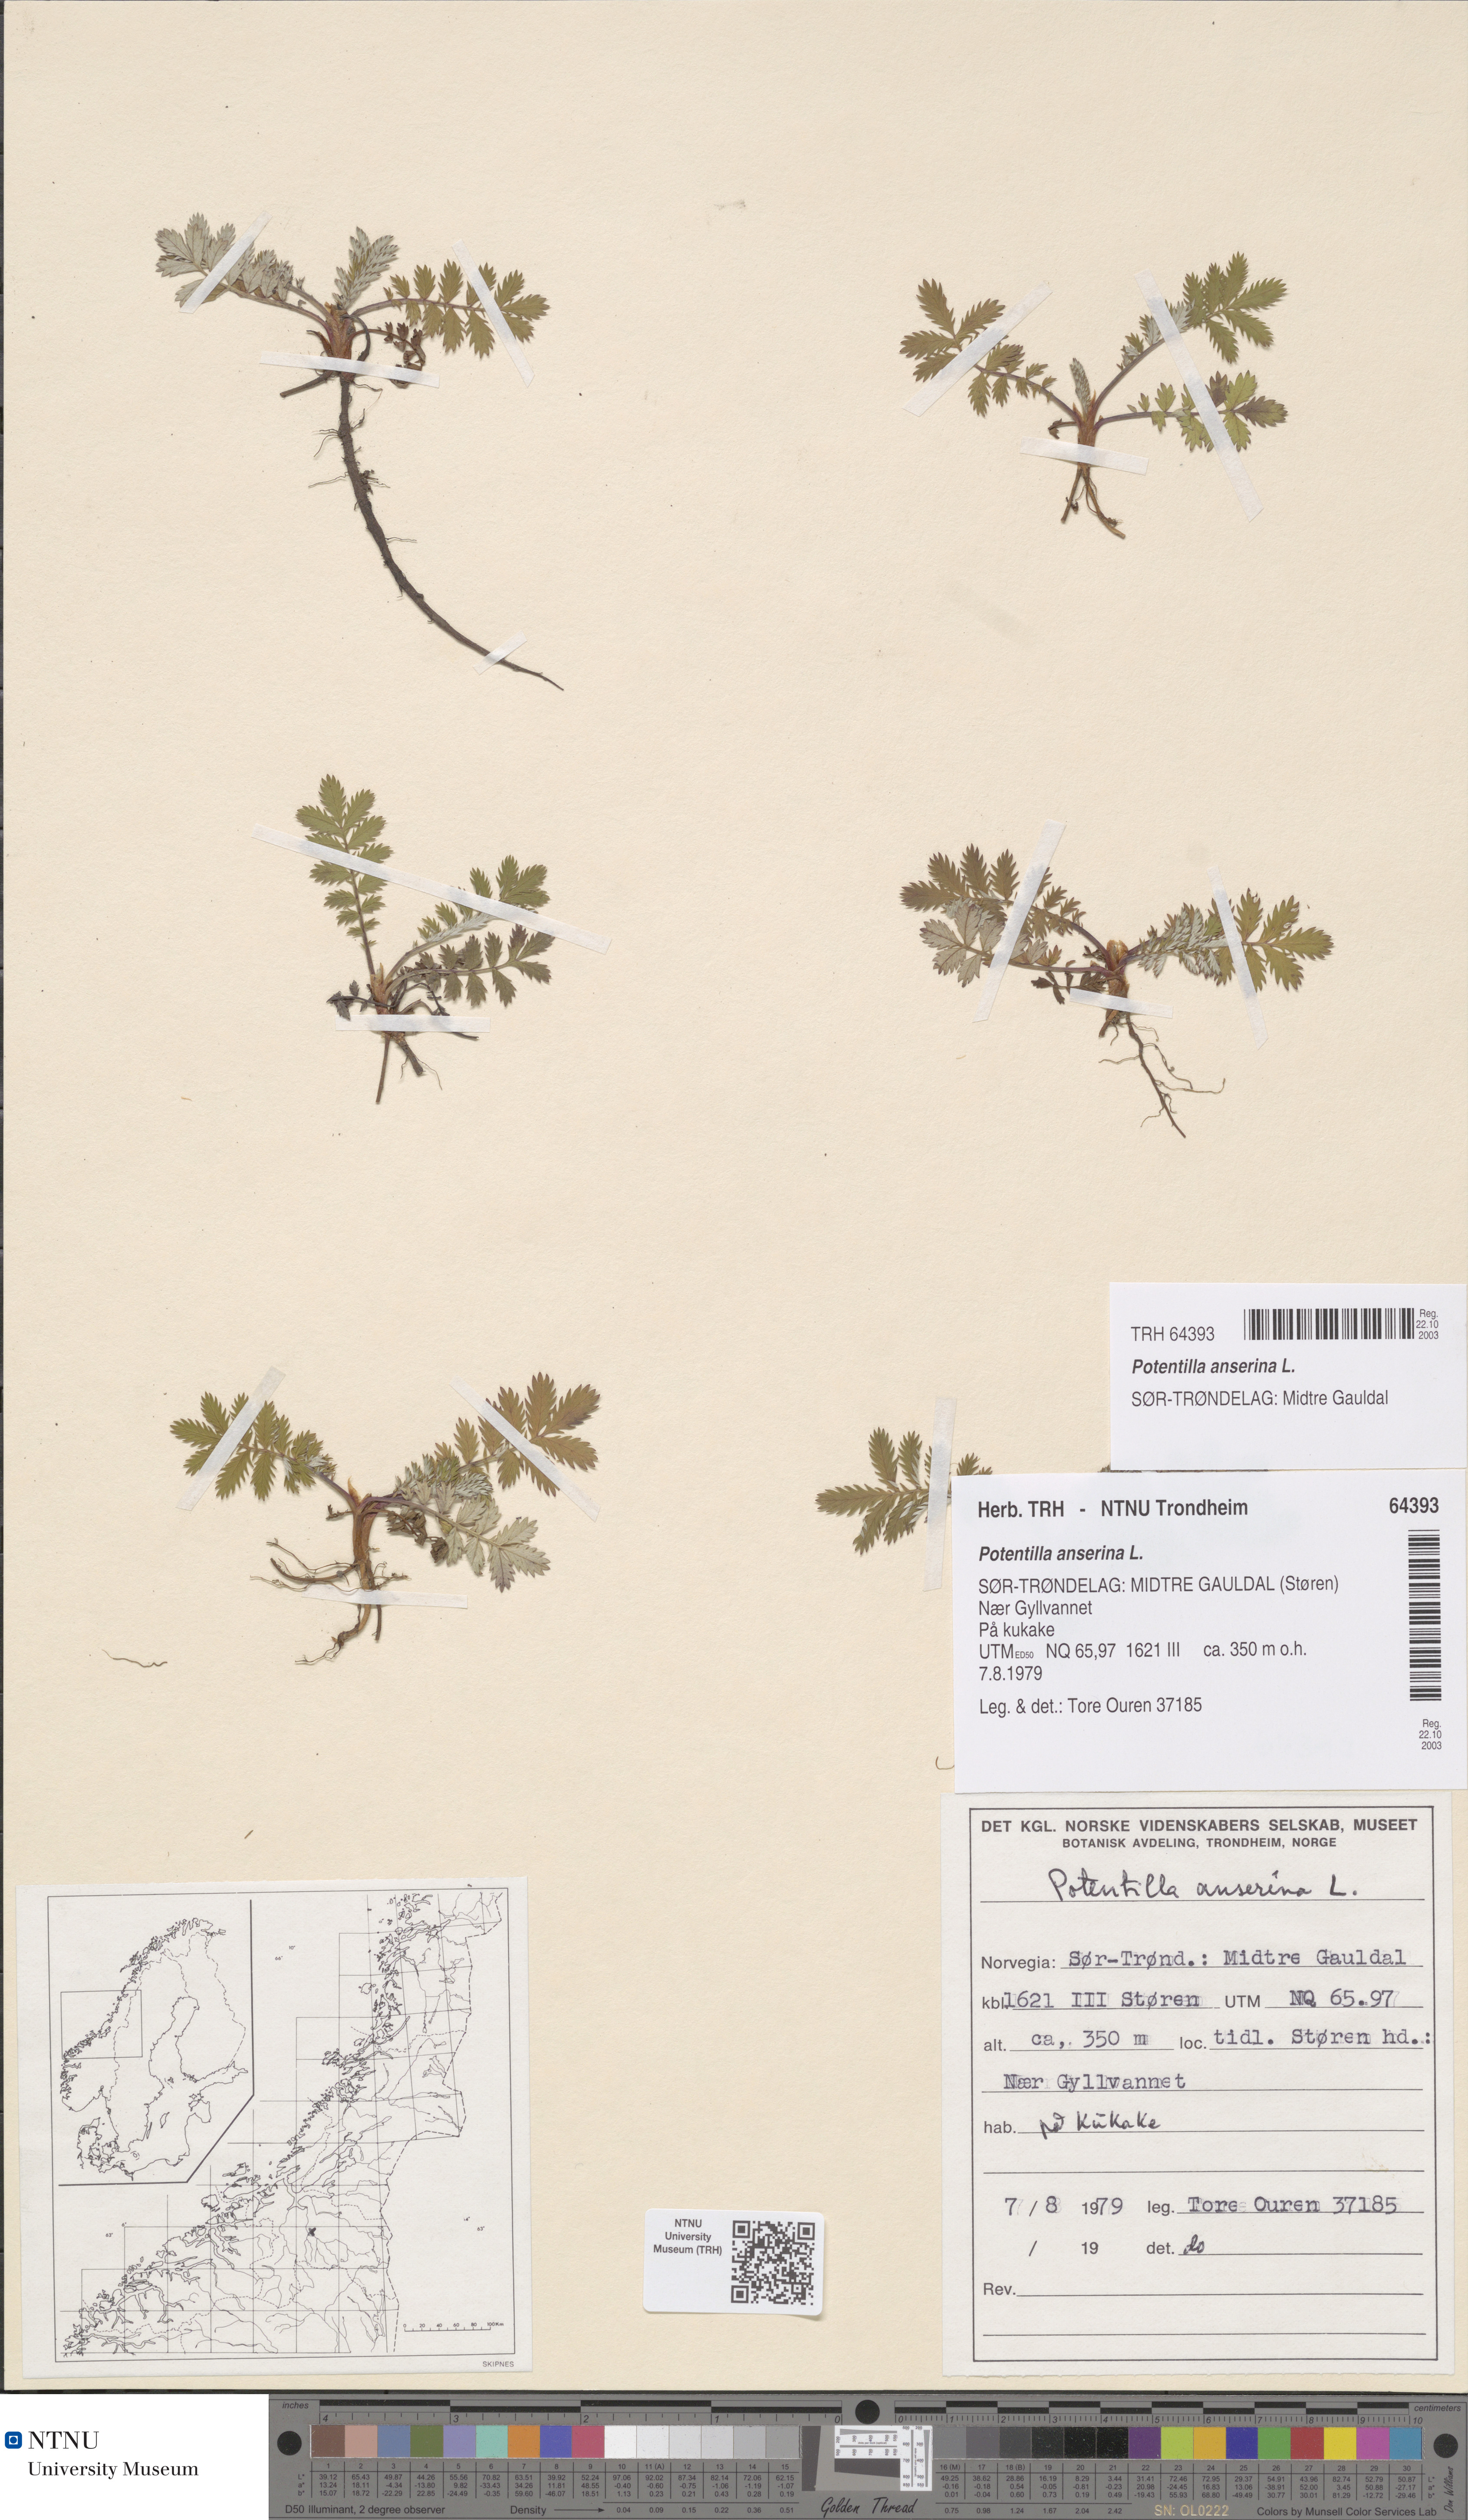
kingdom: Plantae
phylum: Tracheophyta
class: Magnoliopsida
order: Rosales
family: Rosaceae
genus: Argentina
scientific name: Argentina anserina
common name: Common silverweed
